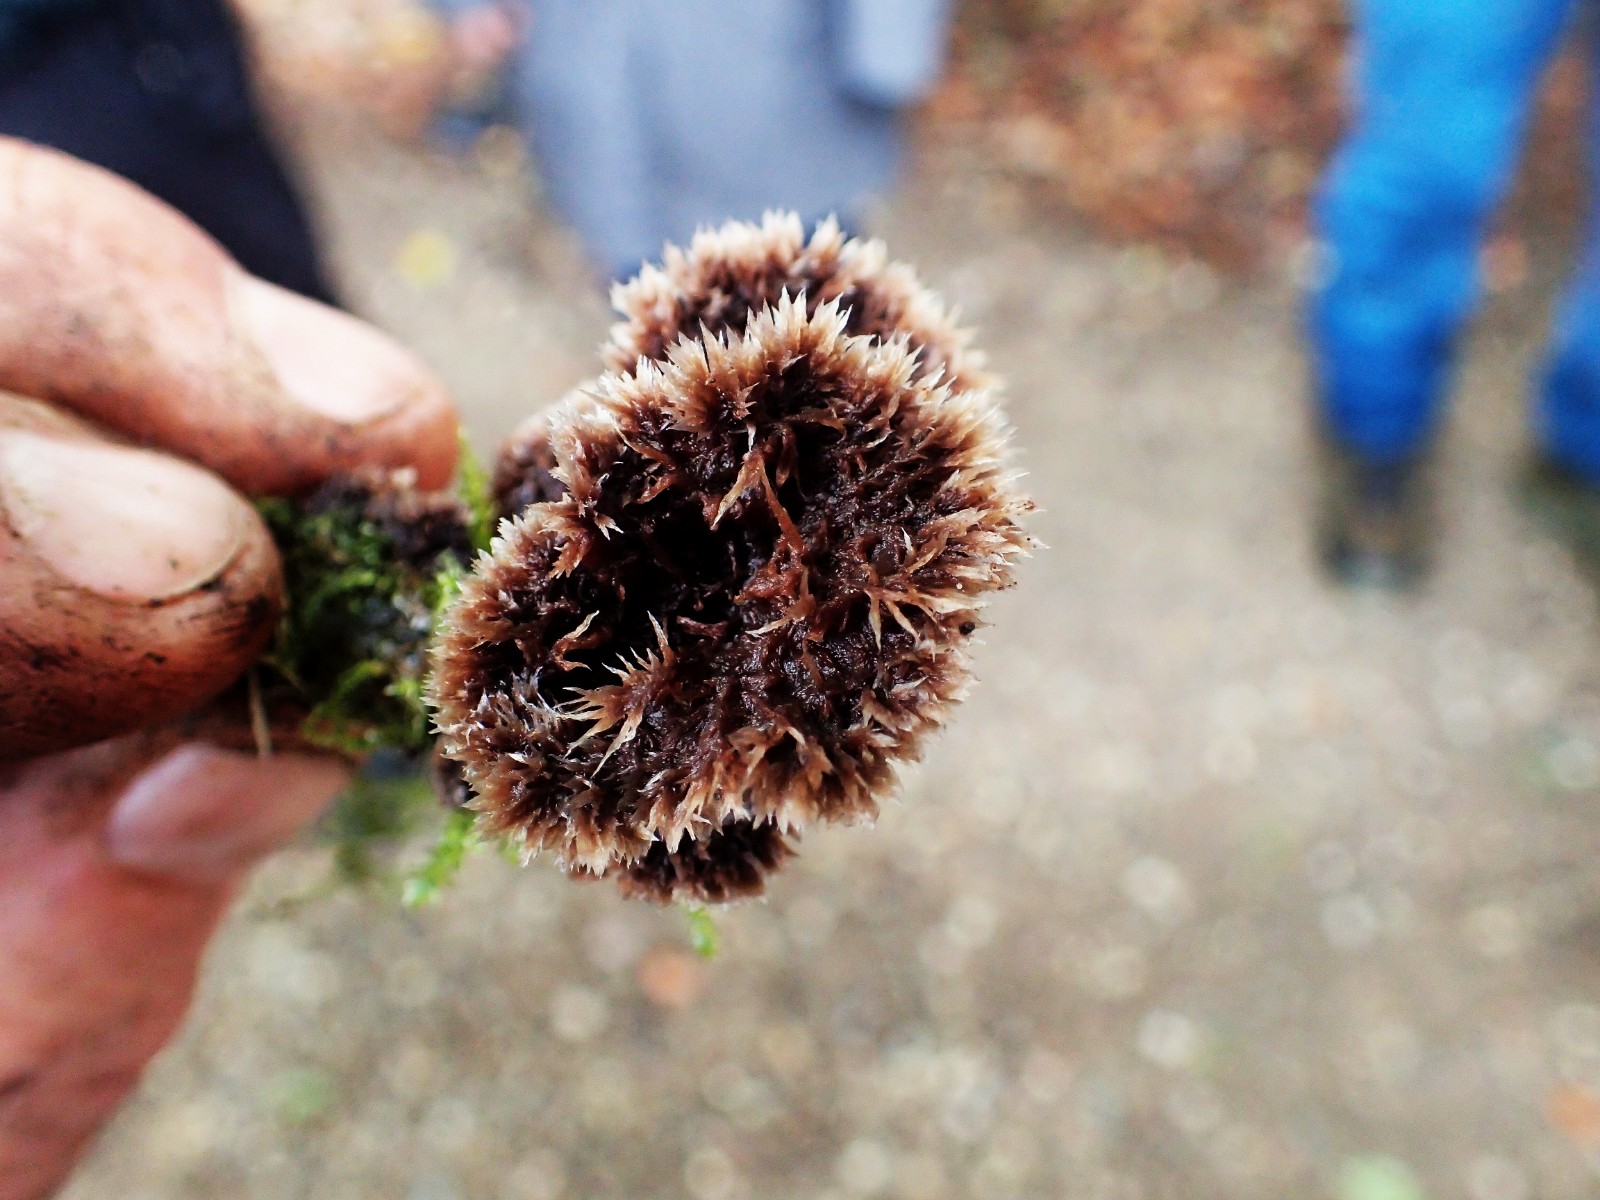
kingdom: Fungi
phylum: Basidiomycota
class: Agaricomycetes
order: Thelephorales
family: Thelephoraceae
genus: Thelephora
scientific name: Thelephora terrestris
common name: fliget frynsesvamp
